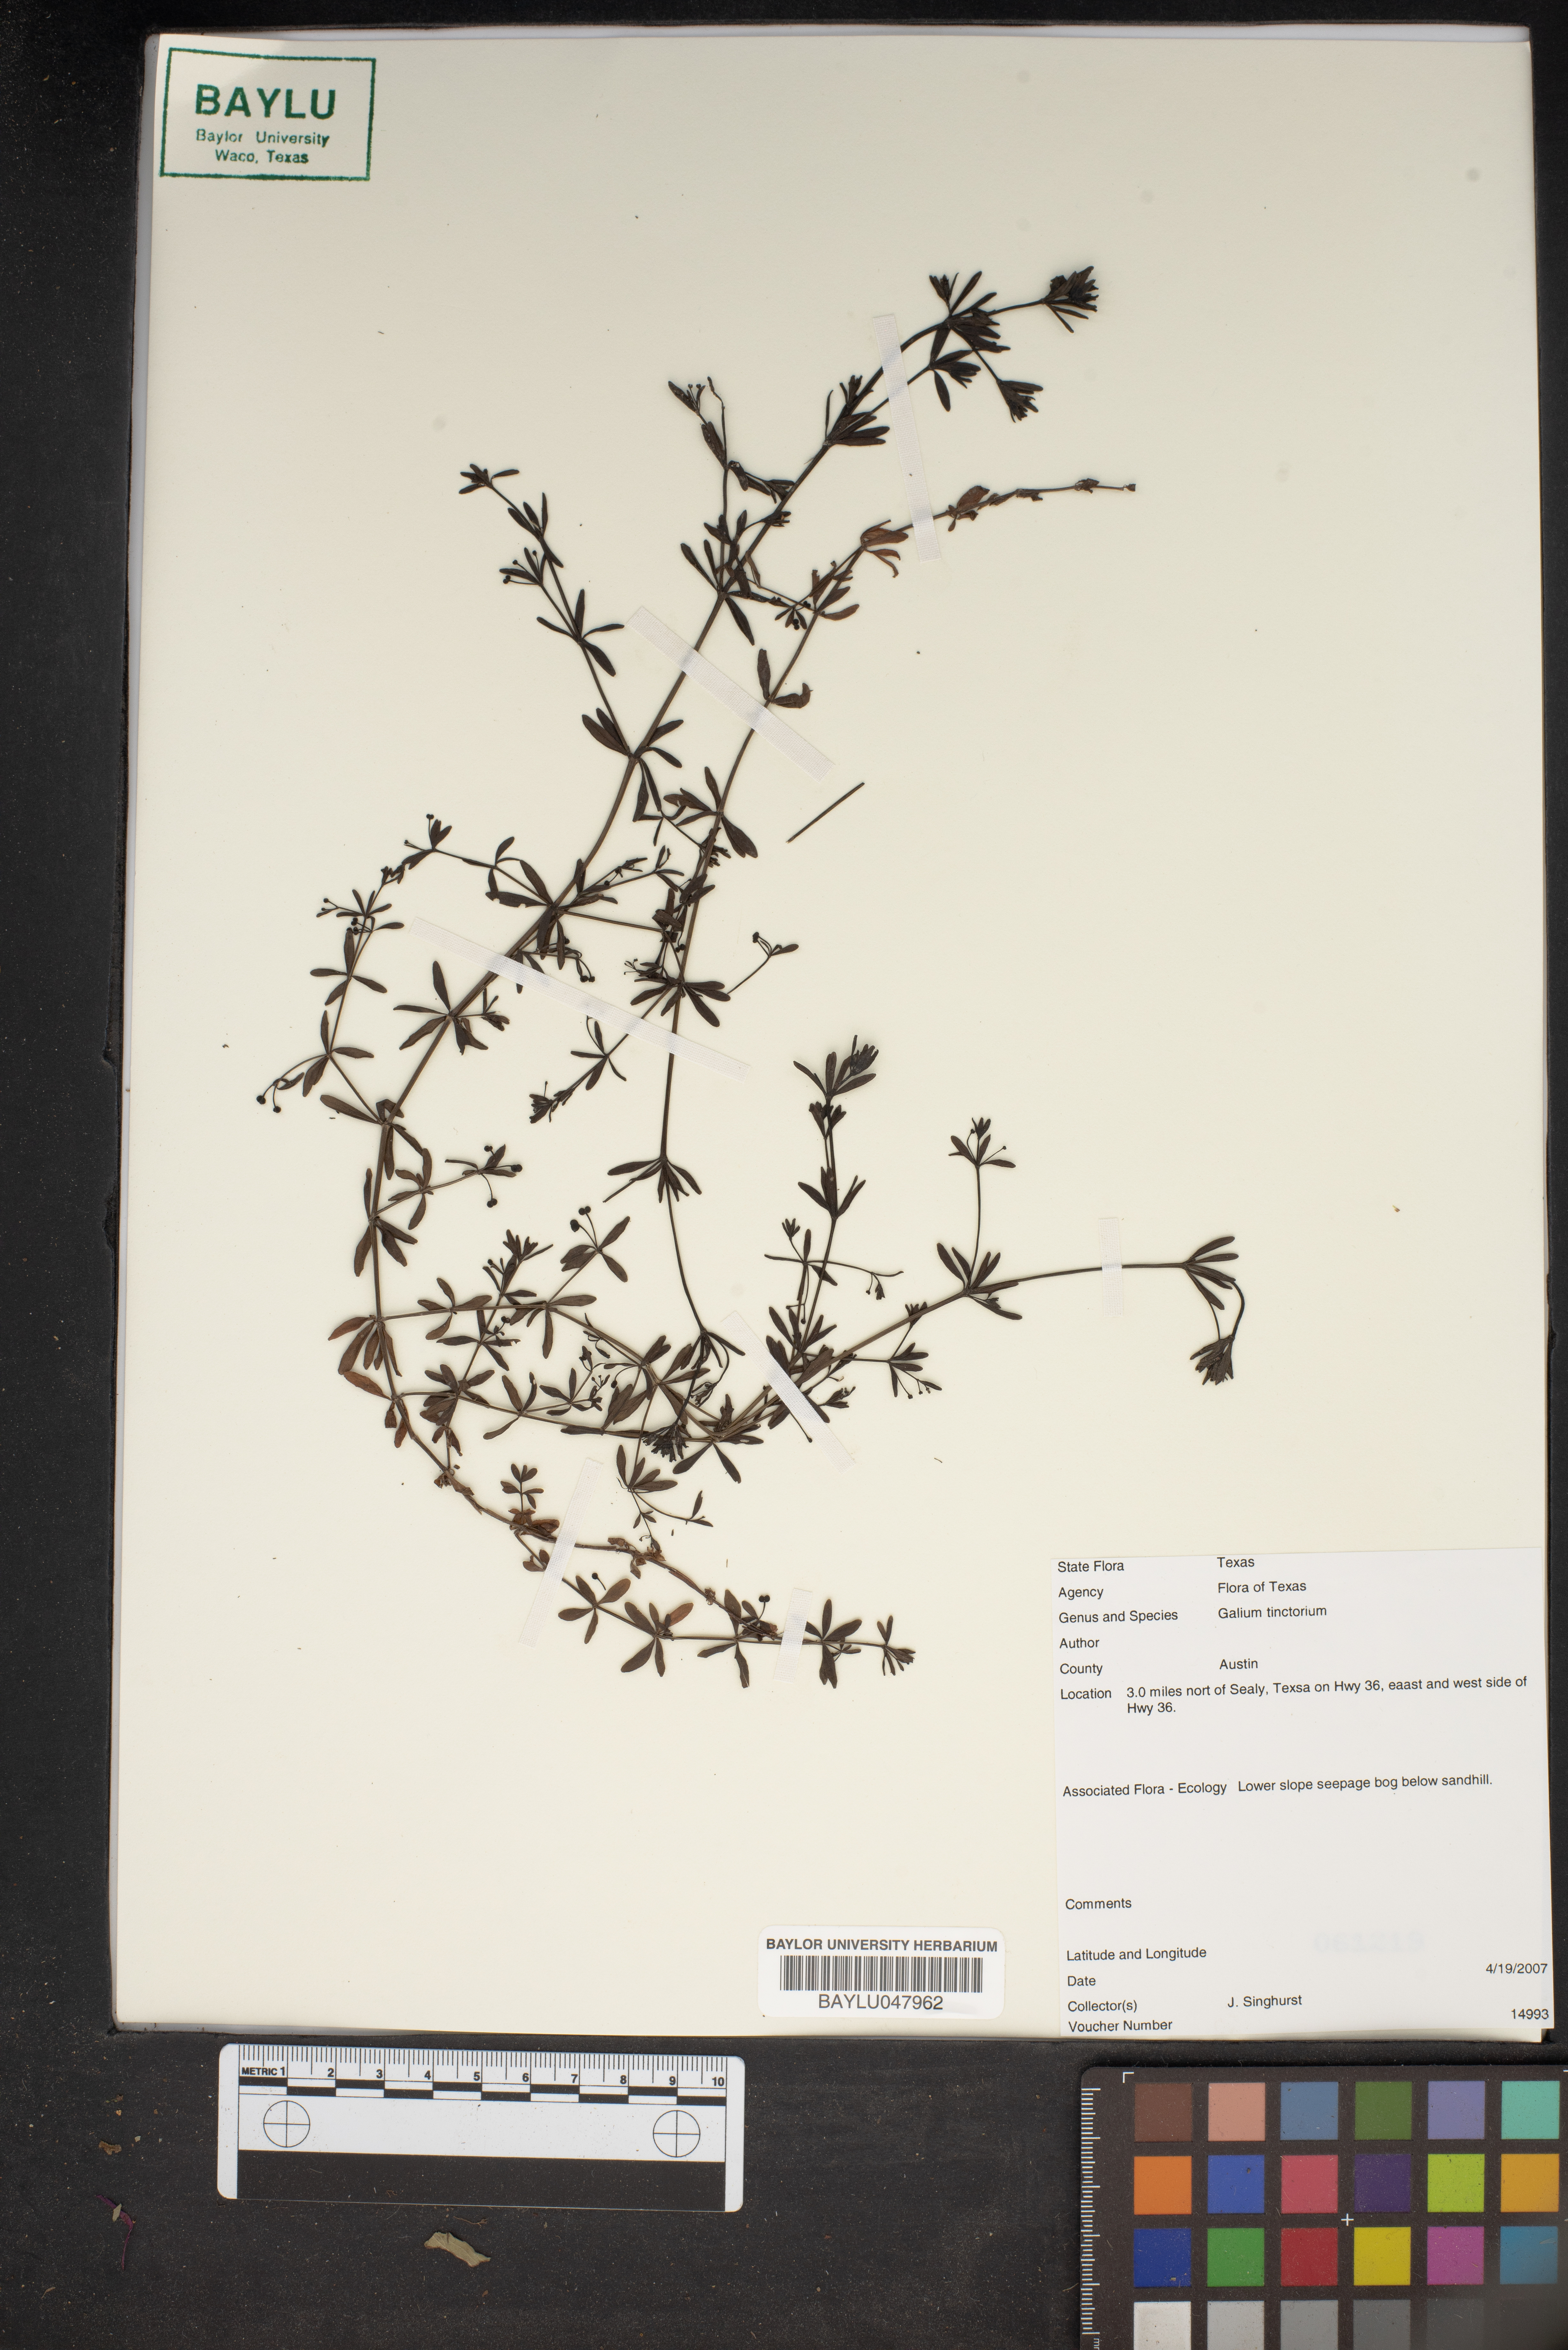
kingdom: Plantae
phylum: Tracheophyta
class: Magnoliopsida
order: Gentianales
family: Rubiaceae
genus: Asperula
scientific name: Asperula tinctoria
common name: Dyer's woodruff
